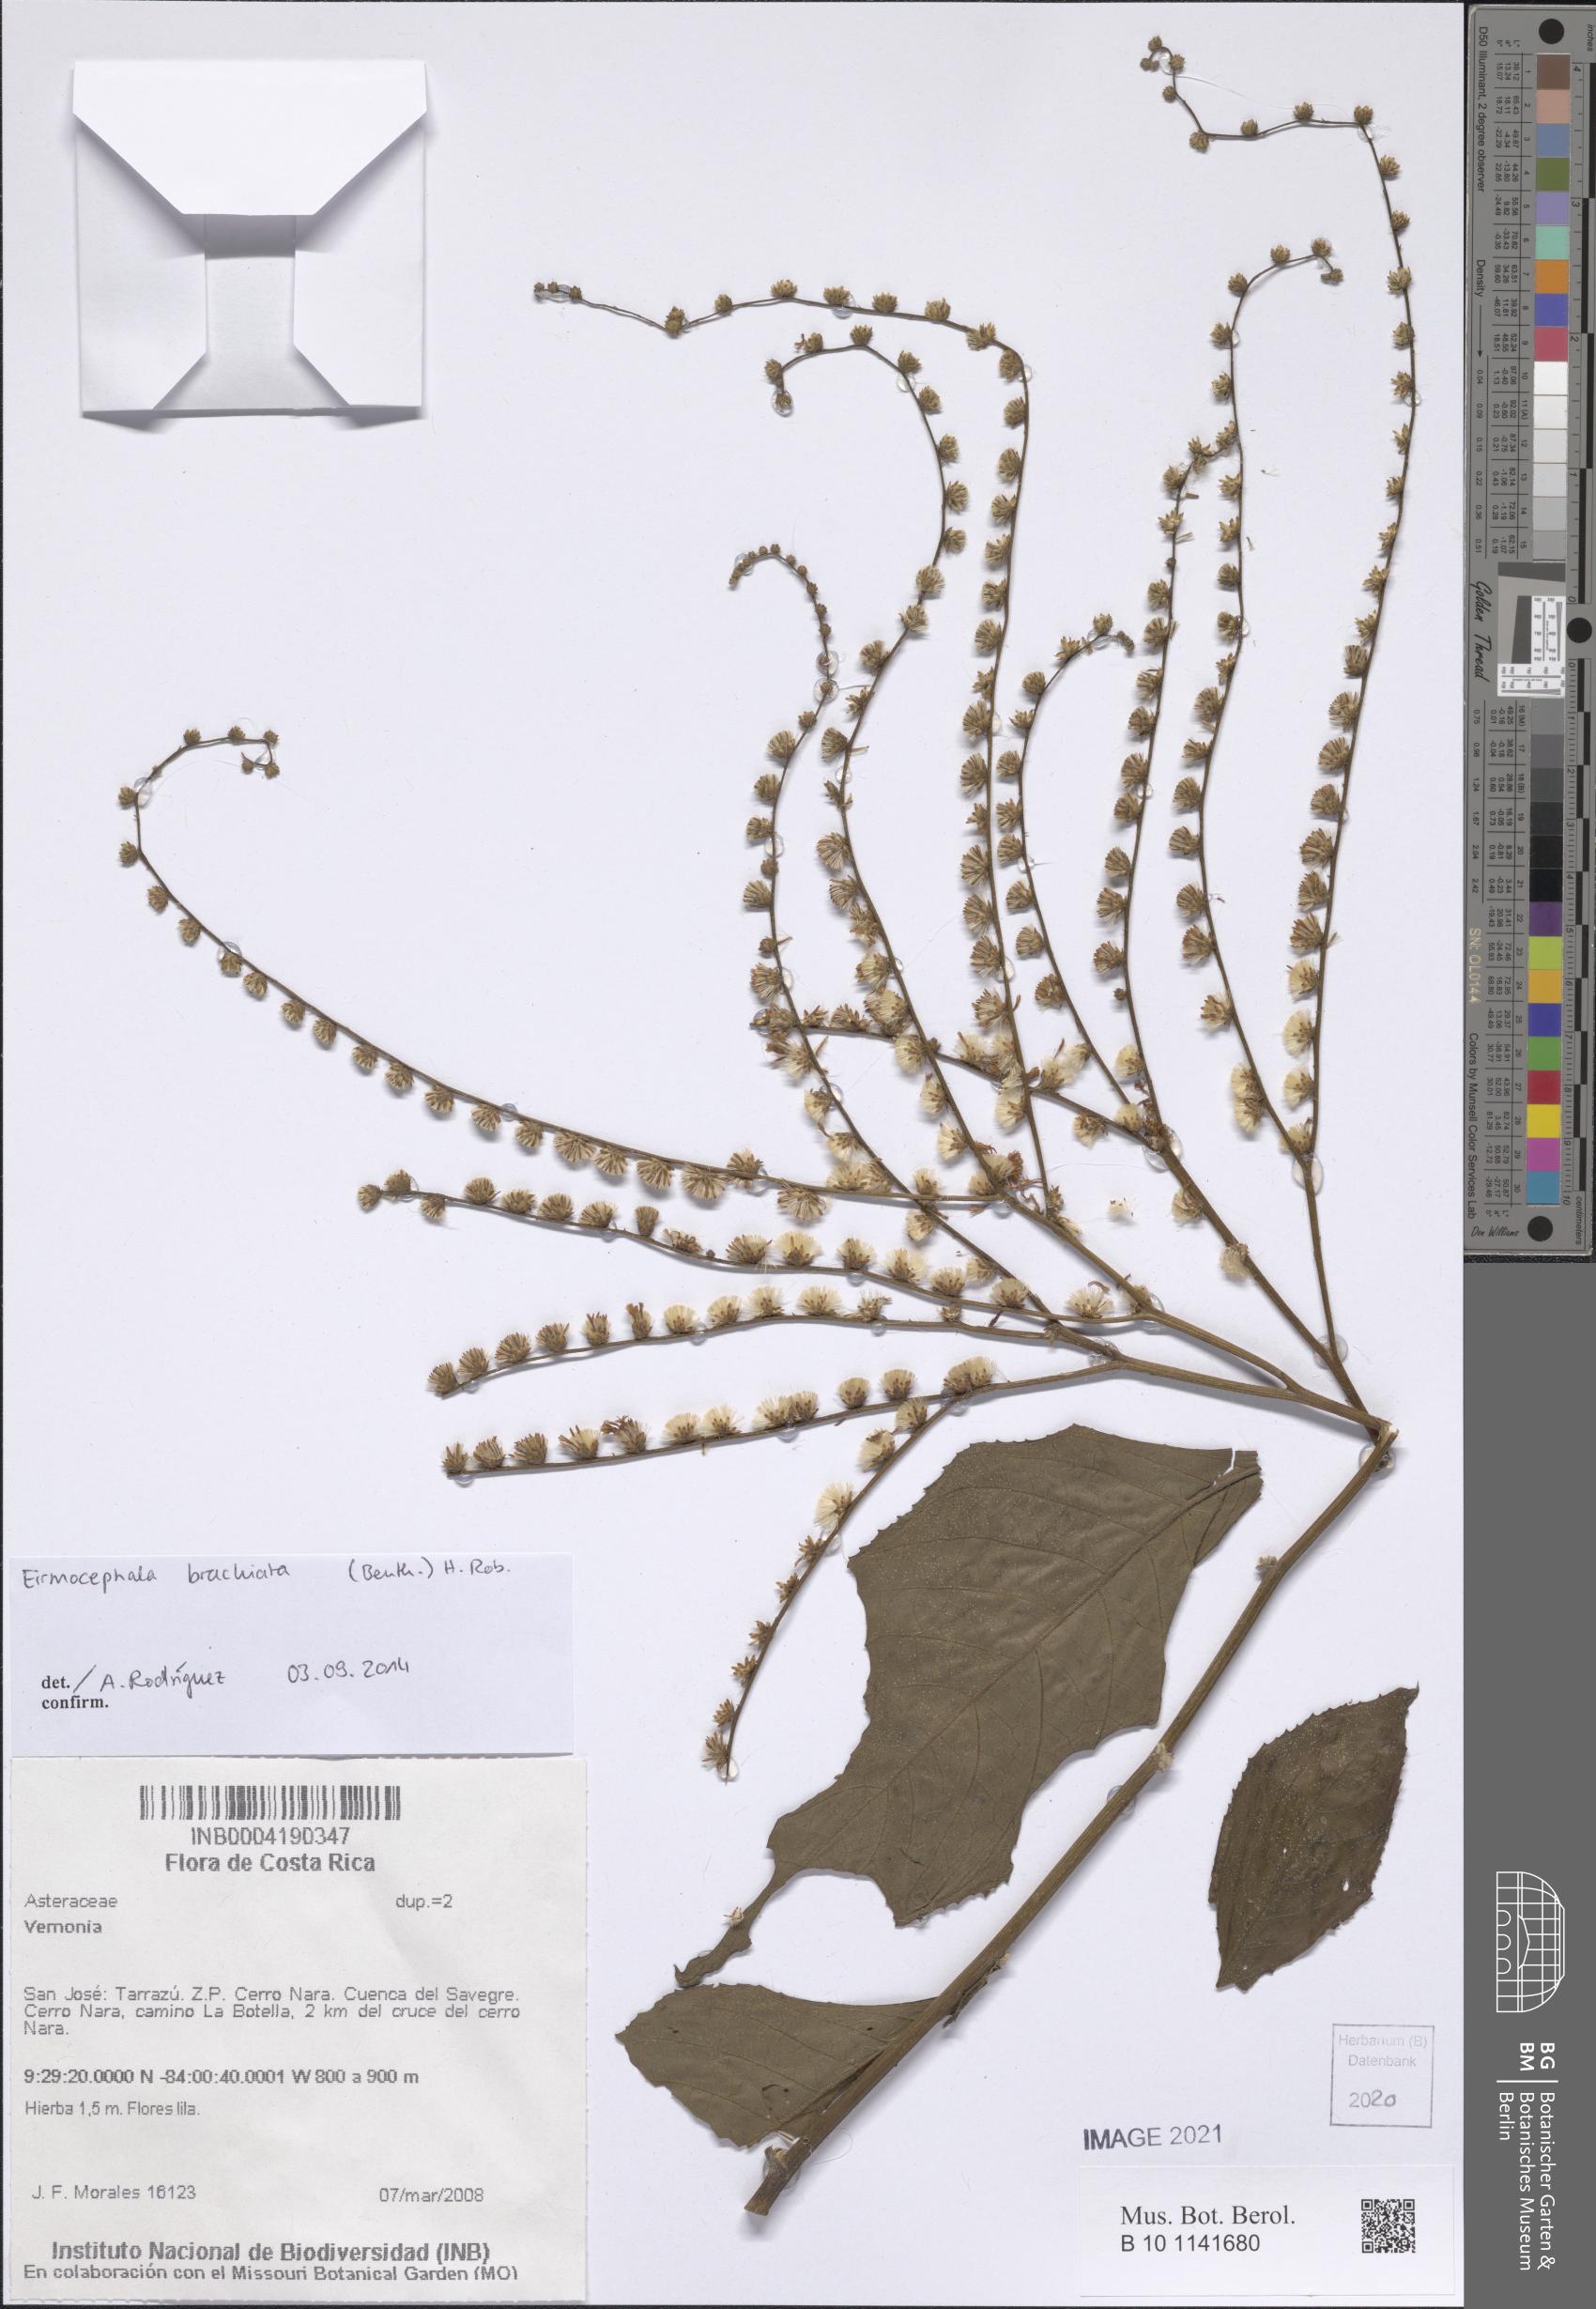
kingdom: Plantae
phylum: Tracheophyta
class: Magnoliopsida
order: Asterales
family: Asteraceae
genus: Eirmocephala
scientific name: Eirmocephala brachiata
